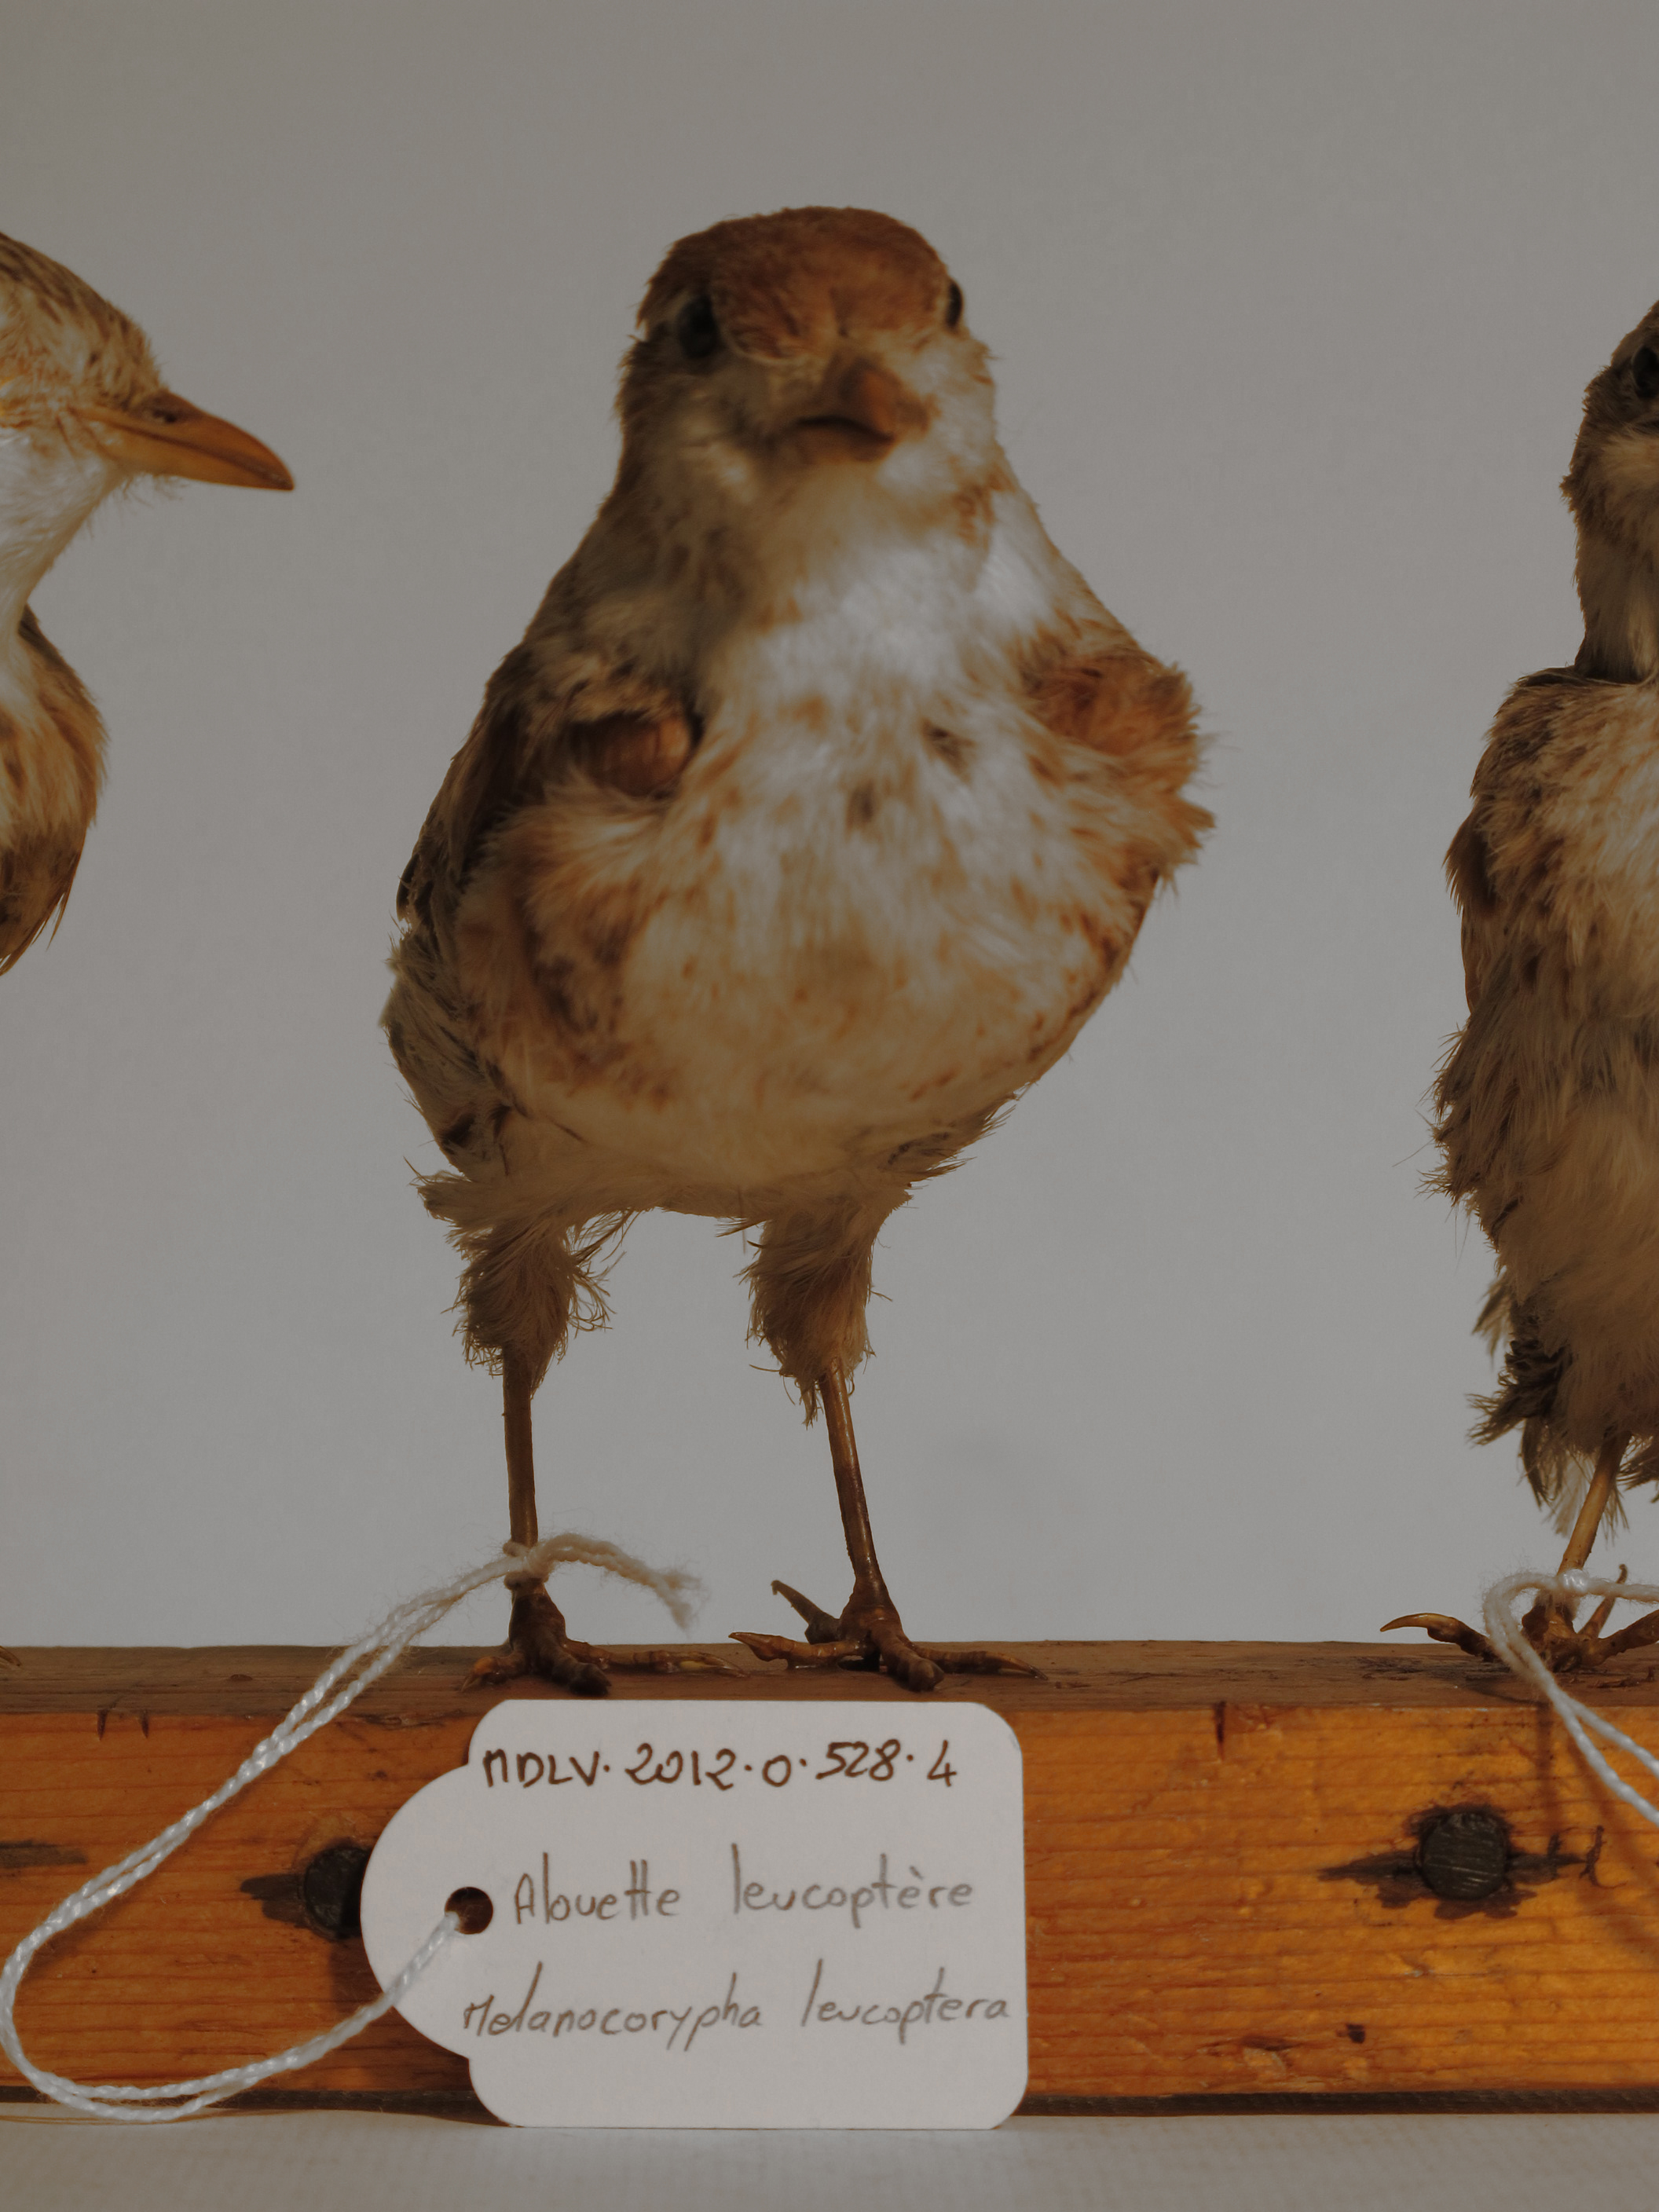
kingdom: Animalia
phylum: Chordata
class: Aves
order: Passeriformes
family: Alaudidae
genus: Melanocorypha
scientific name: Melanocorypha leucoptera
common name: White-winged Lark
